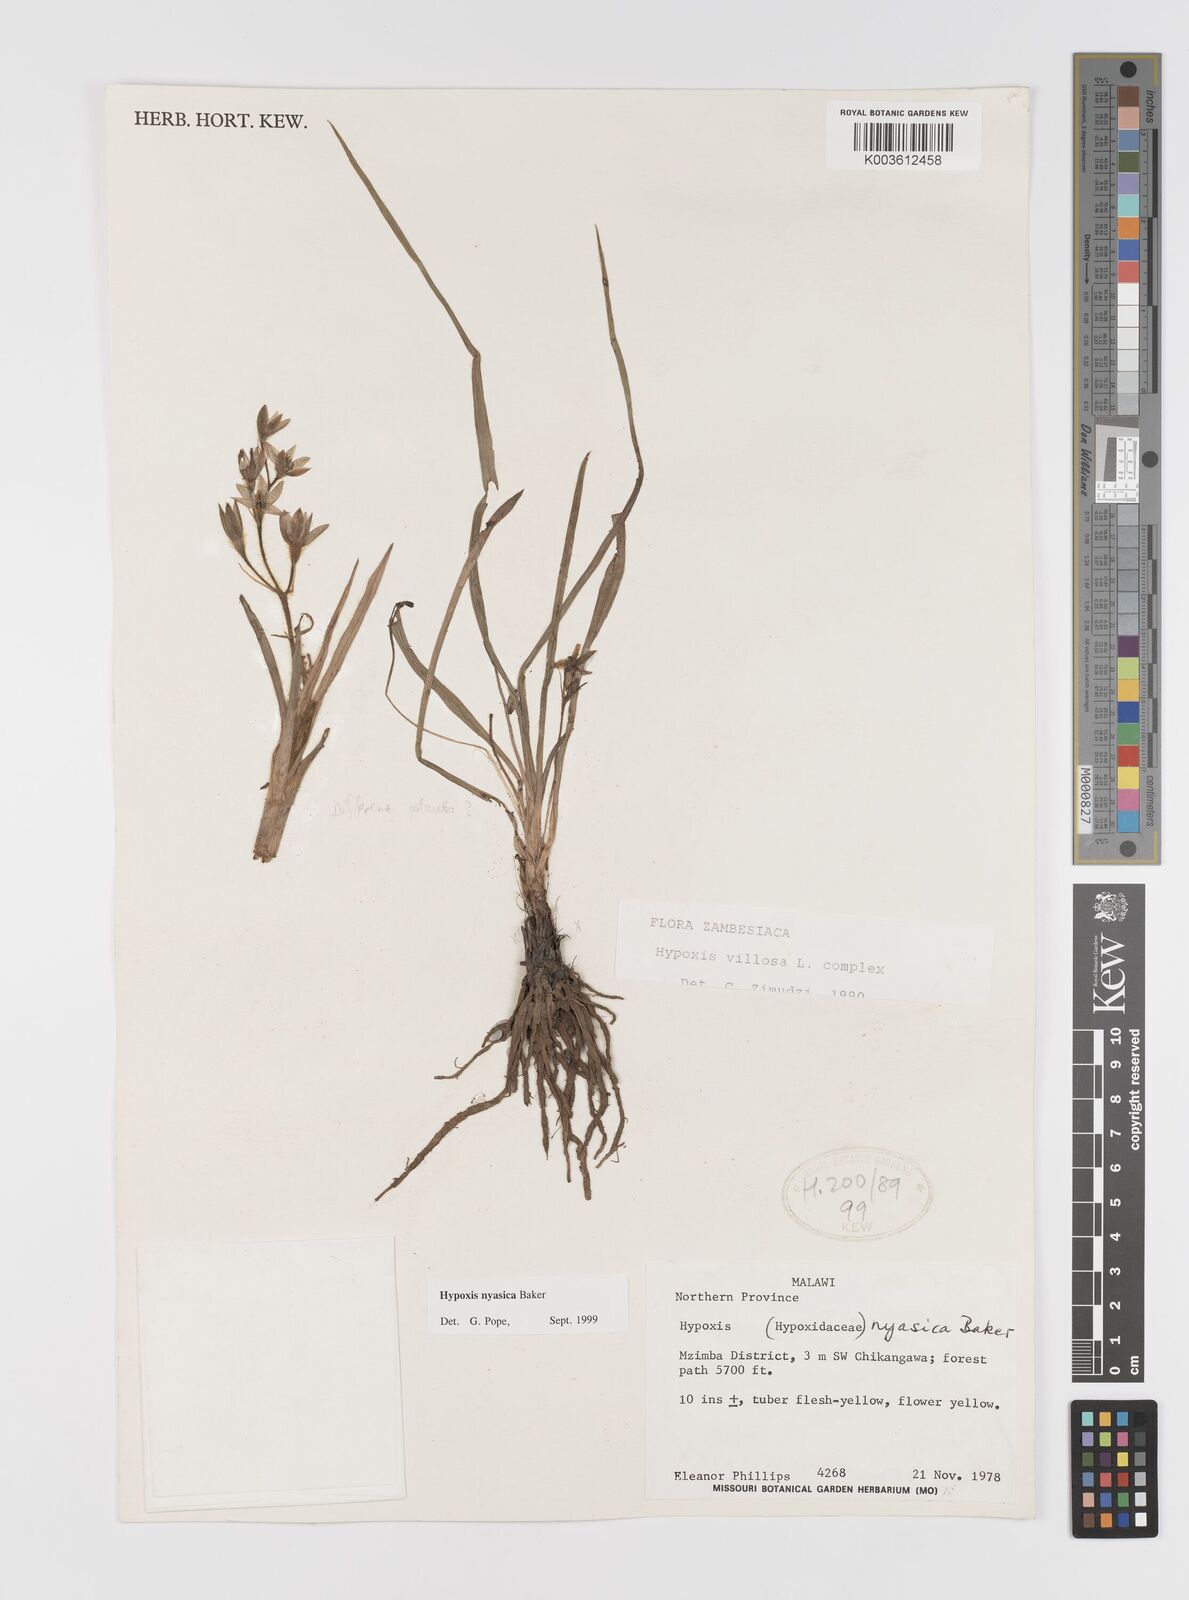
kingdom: Plantae
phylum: Tracheophyta
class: Liliopsida
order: Asparagales
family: Hypoxidaceae
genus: Hypoxis
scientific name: Hypoxis nyasica
